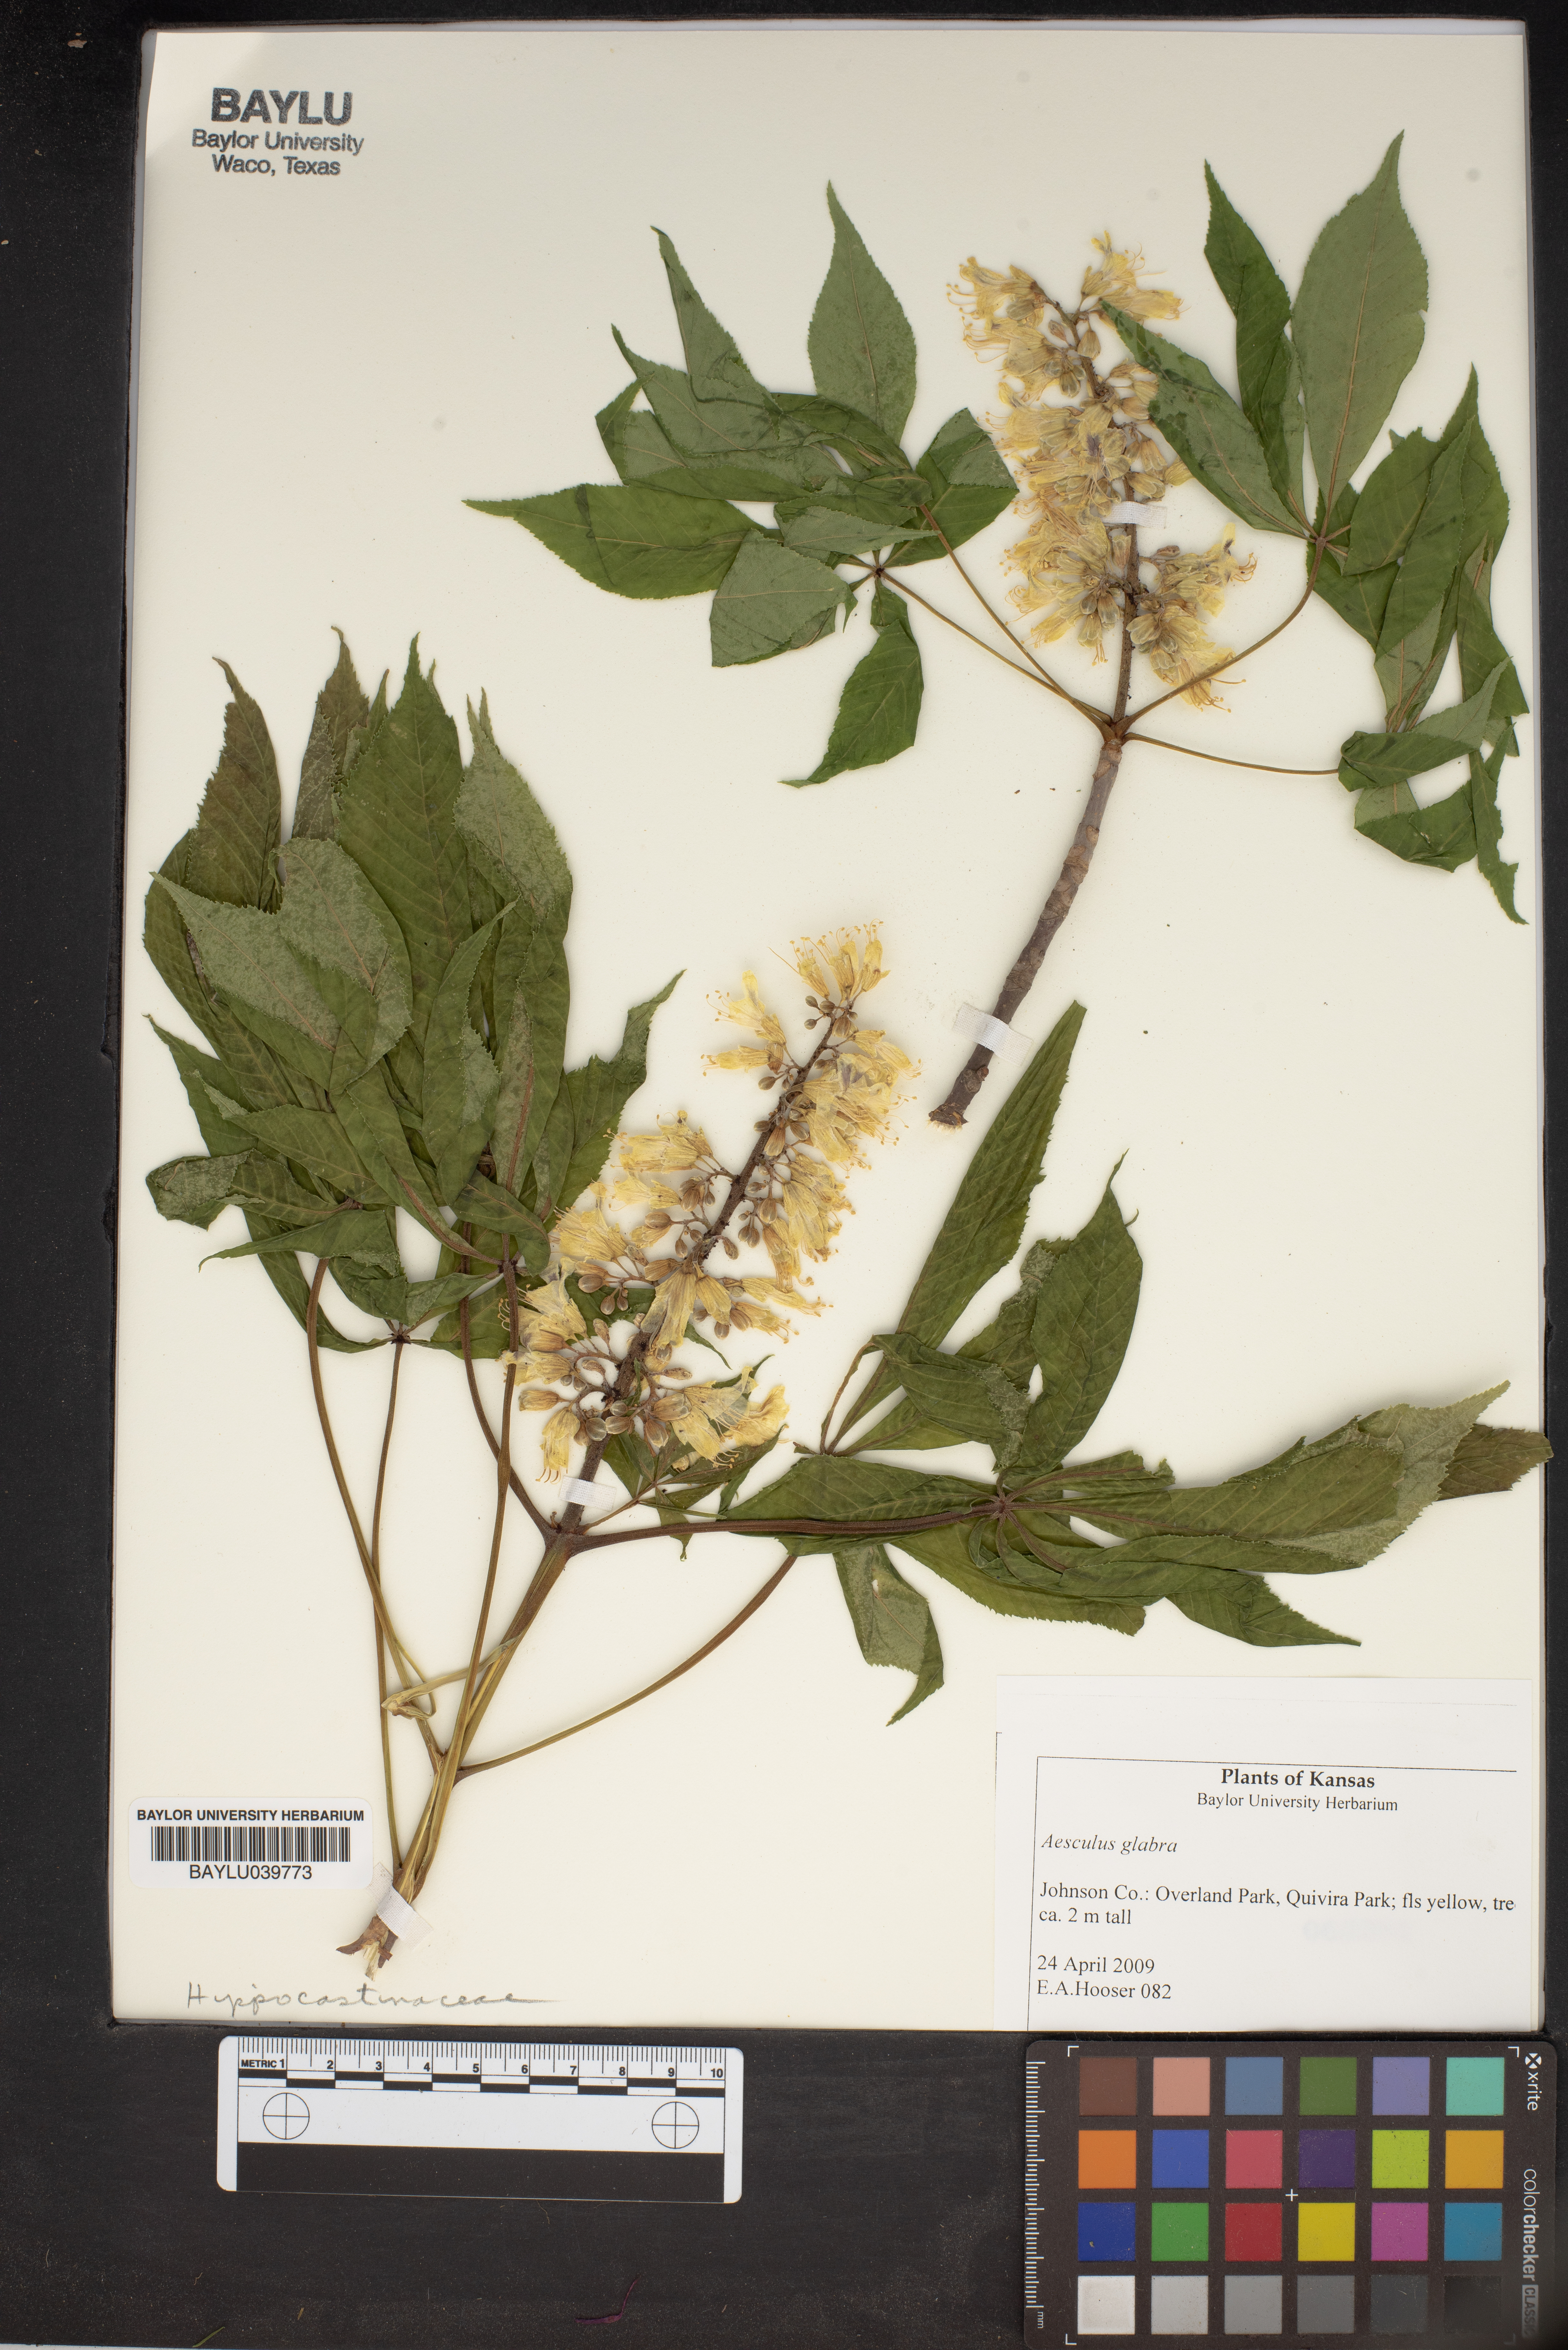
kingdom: Plantae
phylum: Tracheophyta
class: Magnoliopsida
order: Sapindales
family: Sapindaceae
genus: Aesculus
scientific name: Aesculus glabra
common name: Ohio buckeye
